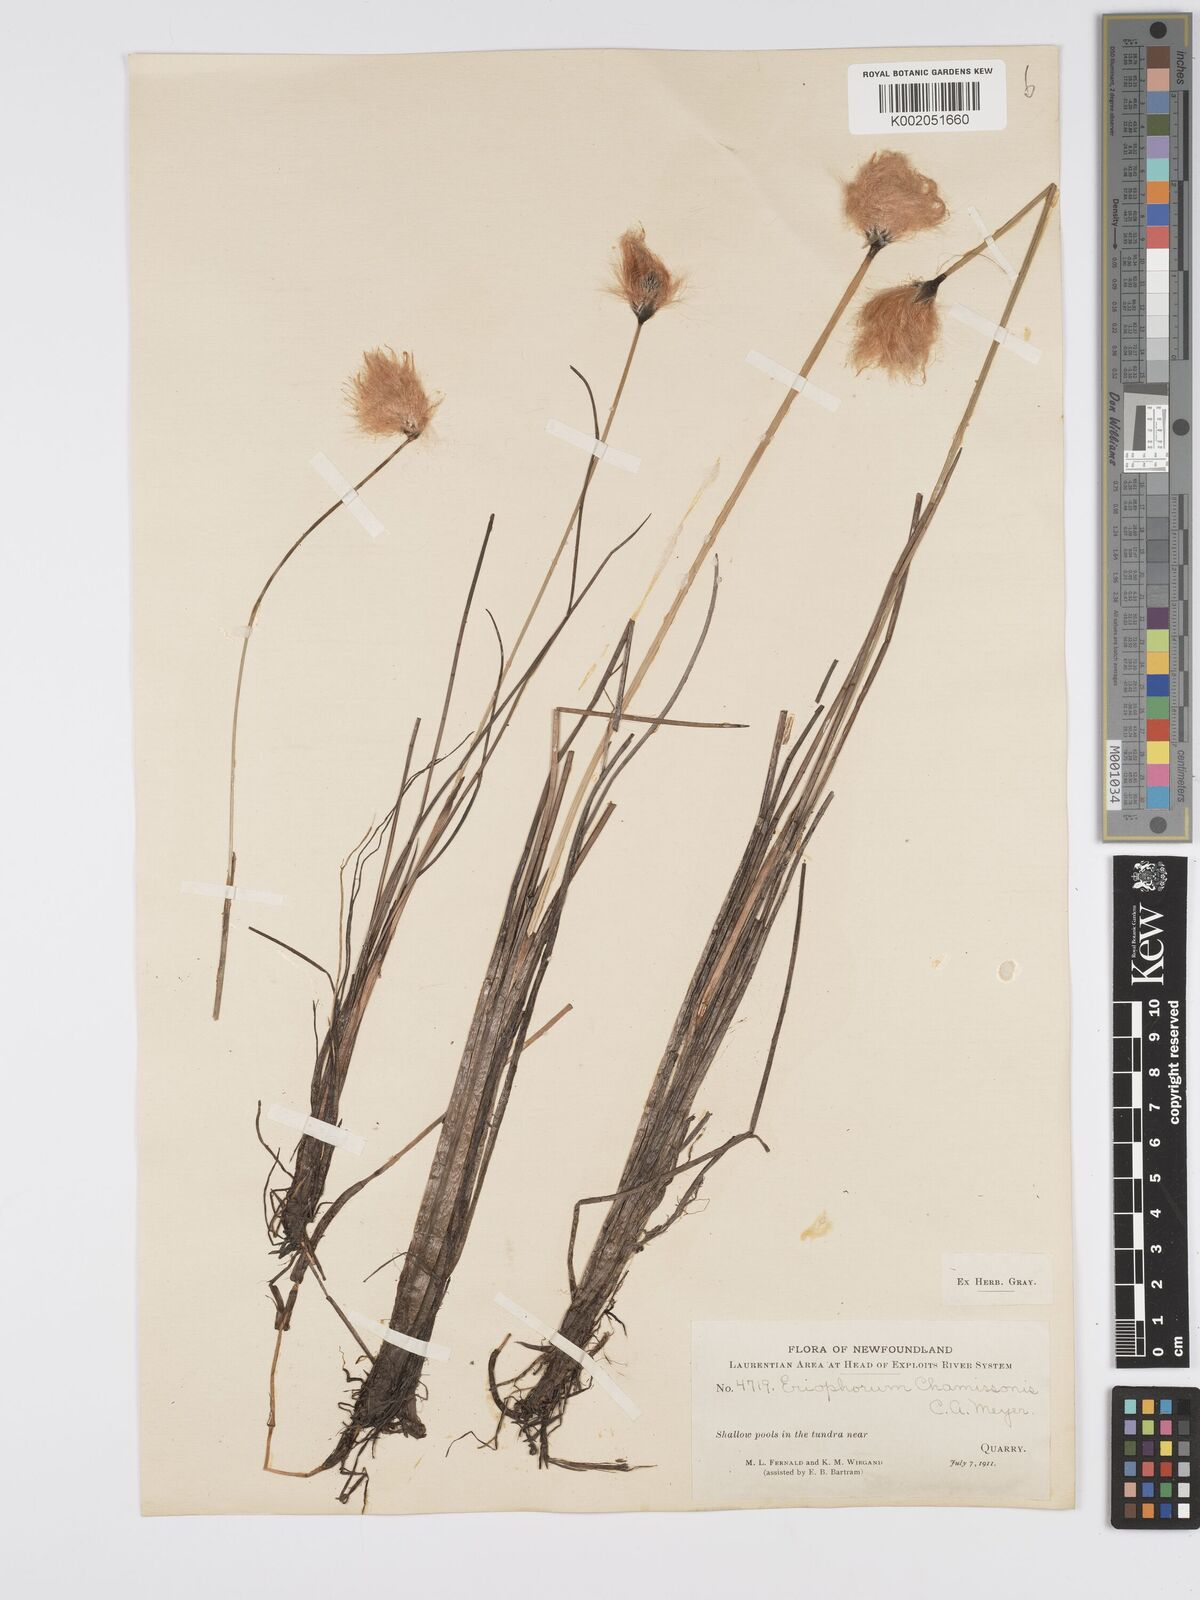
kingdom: Plantae
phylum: Tracheophyta
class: Liliopsida
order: Poales
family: Cyperaceae
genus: Eriophorum
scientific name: Eriophorum chamissonis
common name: Chamisso's cottongrass
